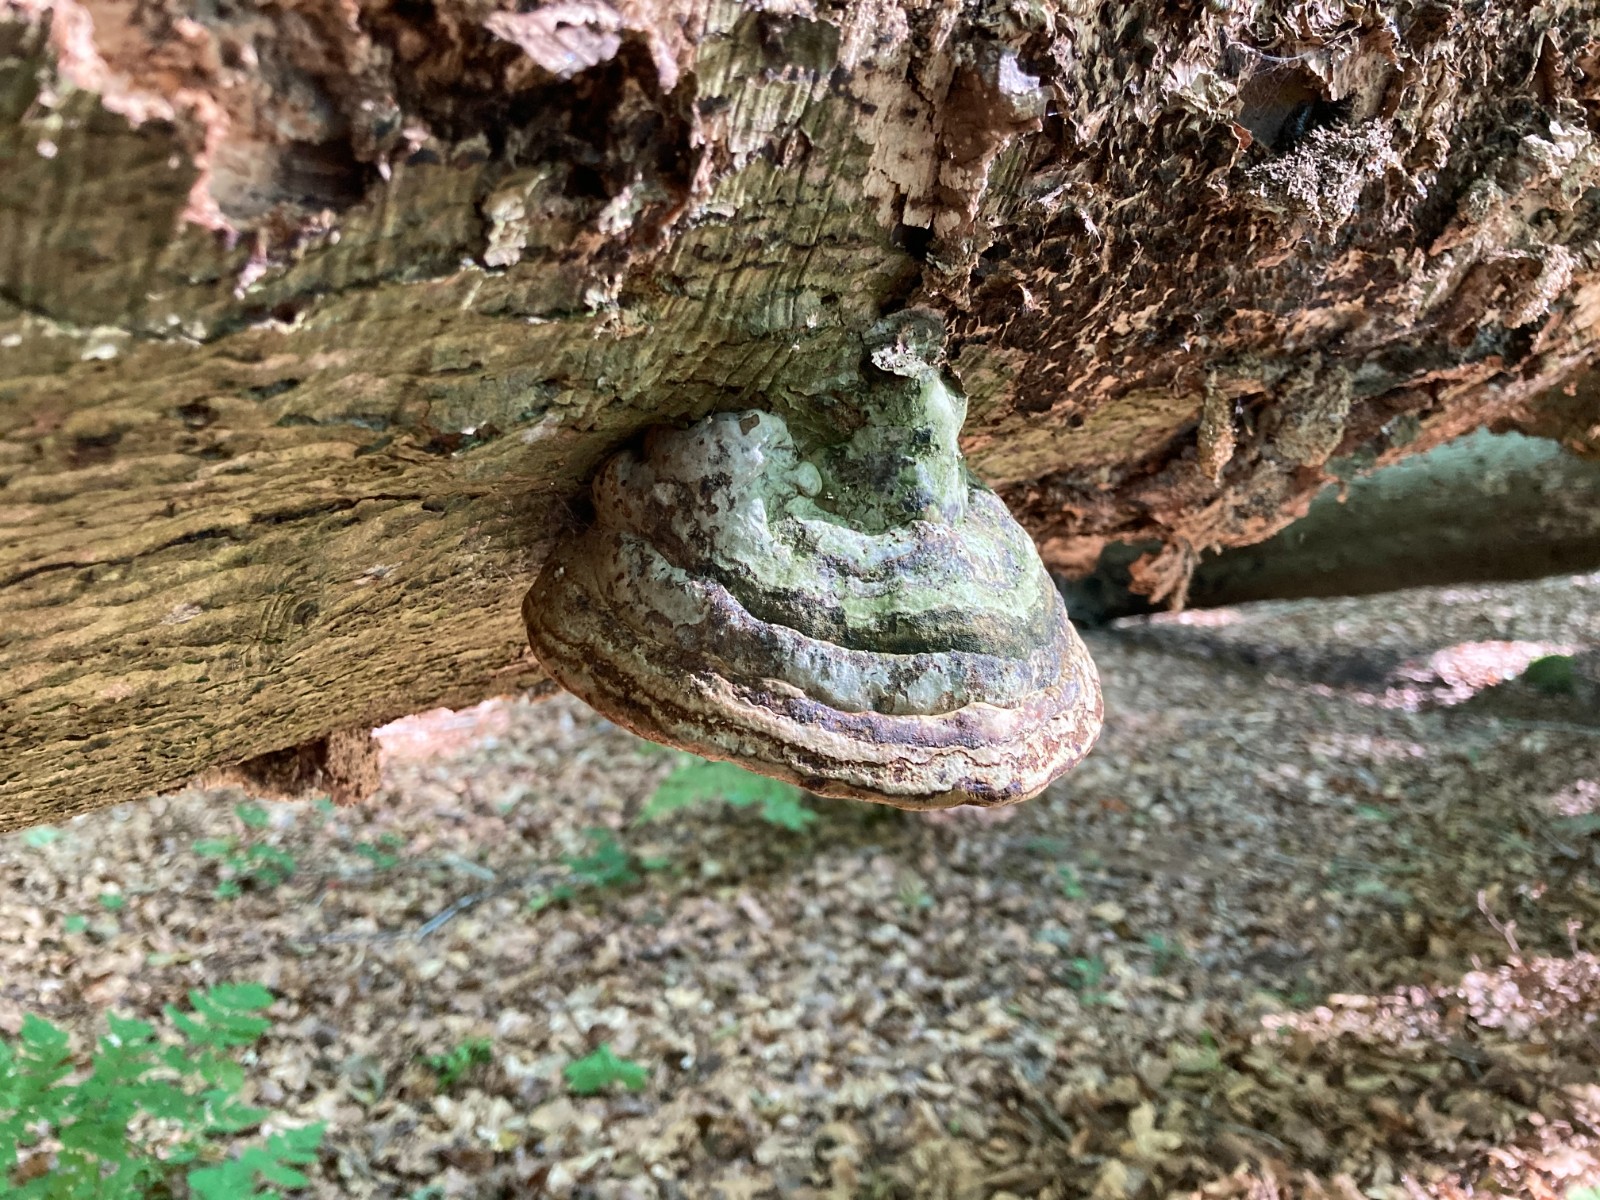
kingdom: Fungi
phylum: Basidiomycota
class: Agaricomycetes
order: Polyporales
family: Polyporaceae
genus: Fomes
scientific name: Fomes fomentarius
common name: tøndersvamp
